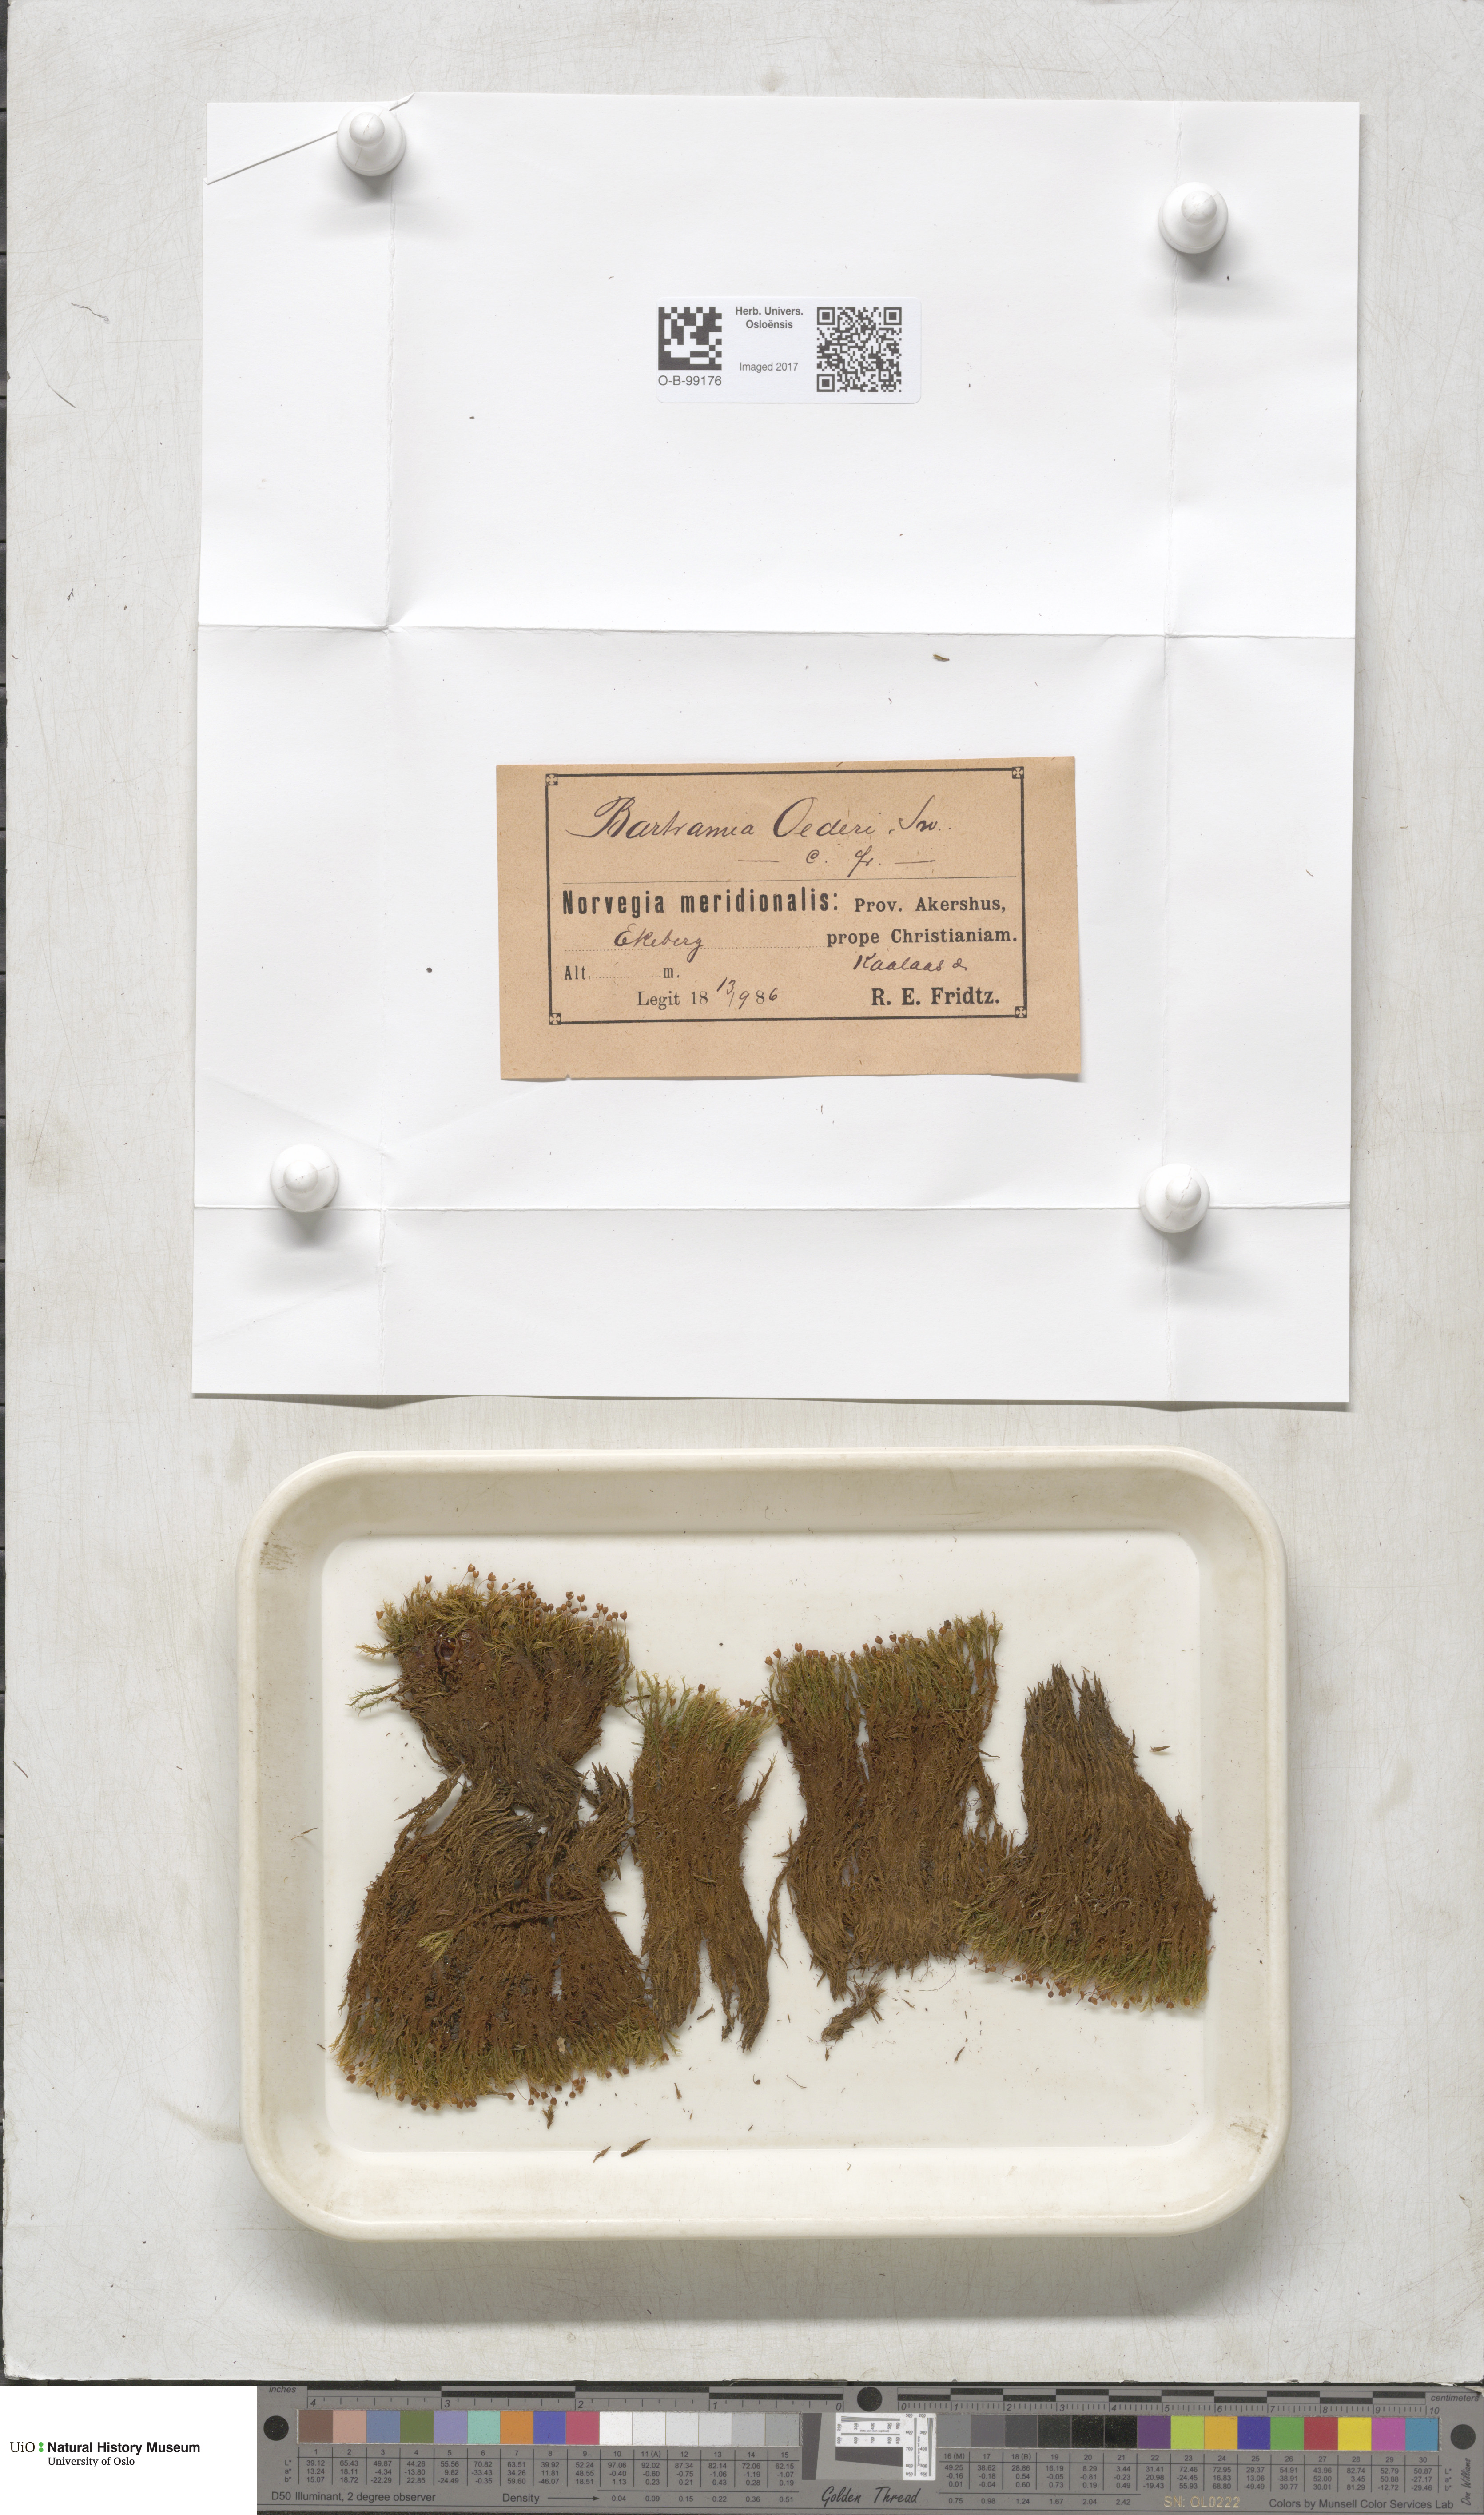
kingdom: Plantae
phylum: Bryophyta
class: Bryopsida
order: Bartramiales
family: Bartramiaceae
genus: Plagiopus
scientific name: Plagiopus oederianus
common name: Oeder's apple moss
